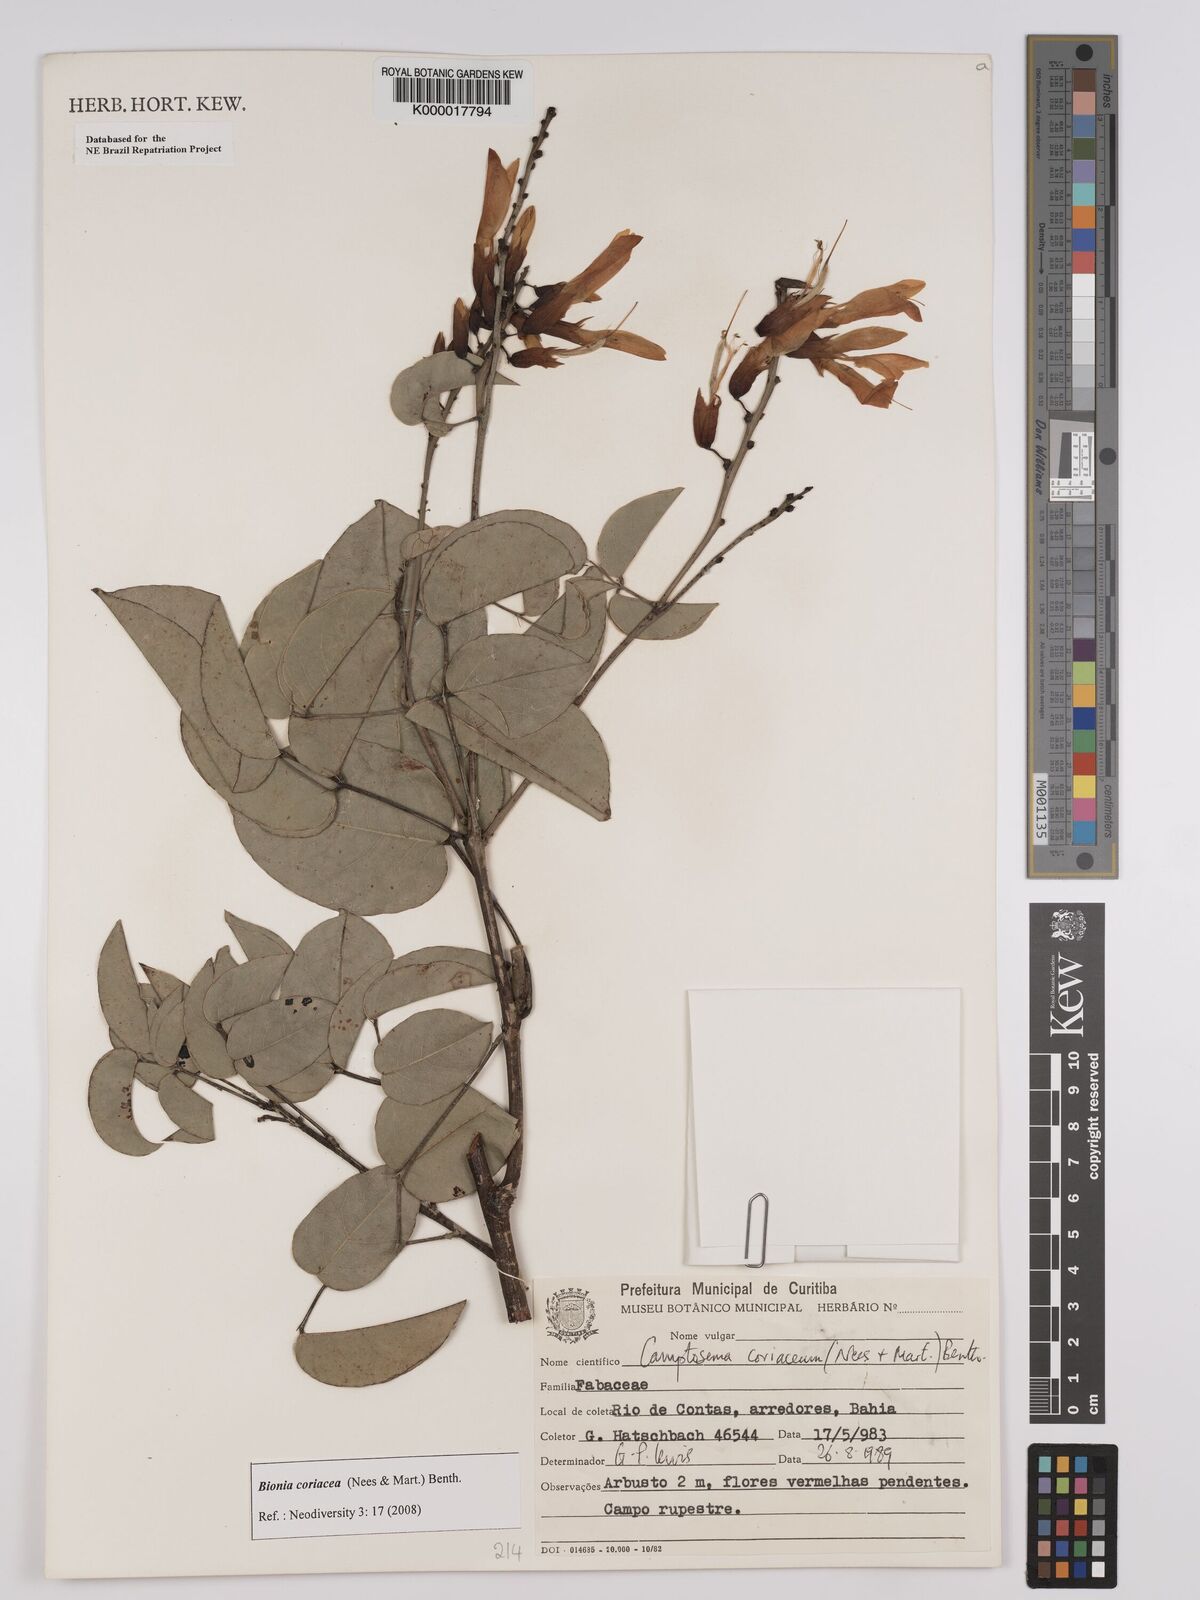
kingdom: Plantae
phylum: Tracheophyta
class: Magnoliopsida
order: Fabales
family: Fabaceae
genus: Camptosema
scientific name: Camptosema coriaceum
